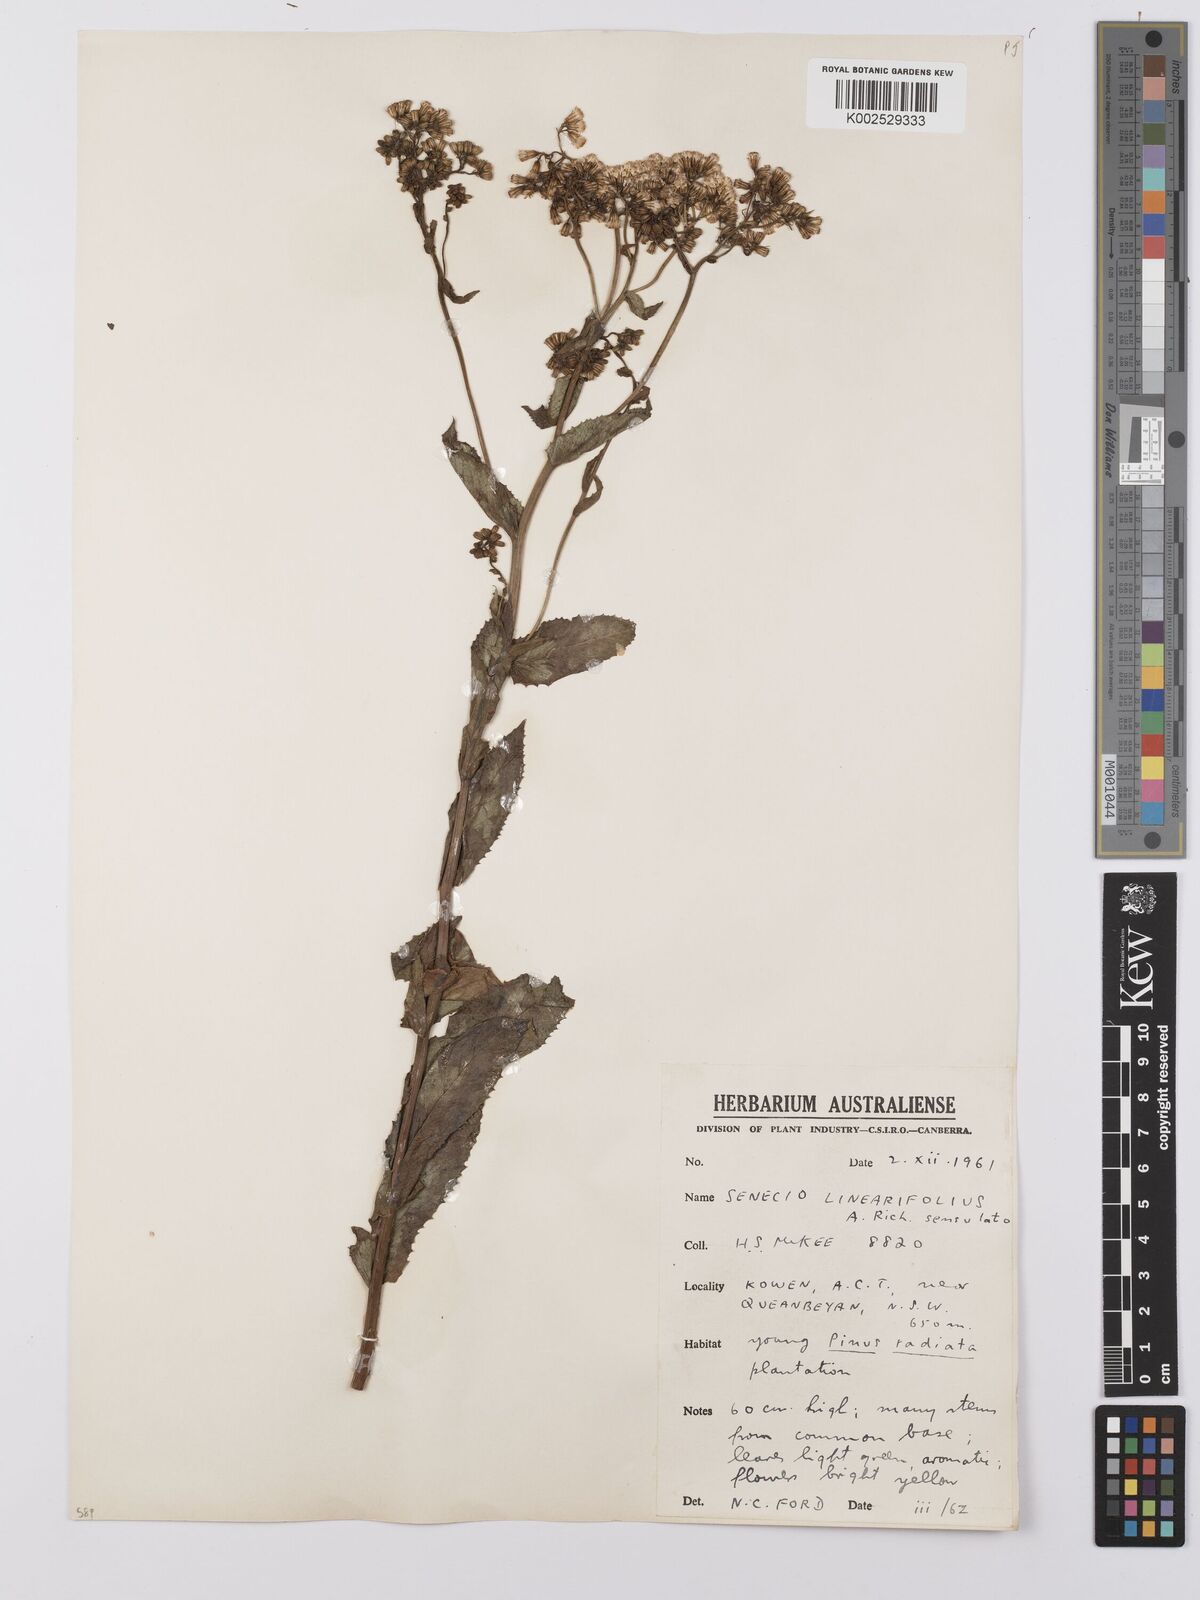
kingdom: Plantae
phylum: Tracheophyta
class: Magnoliopsida
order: Asterales
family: Asteraceae
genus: Senecio
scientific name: Senecio linearifolius
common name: Fireweed groundsel
